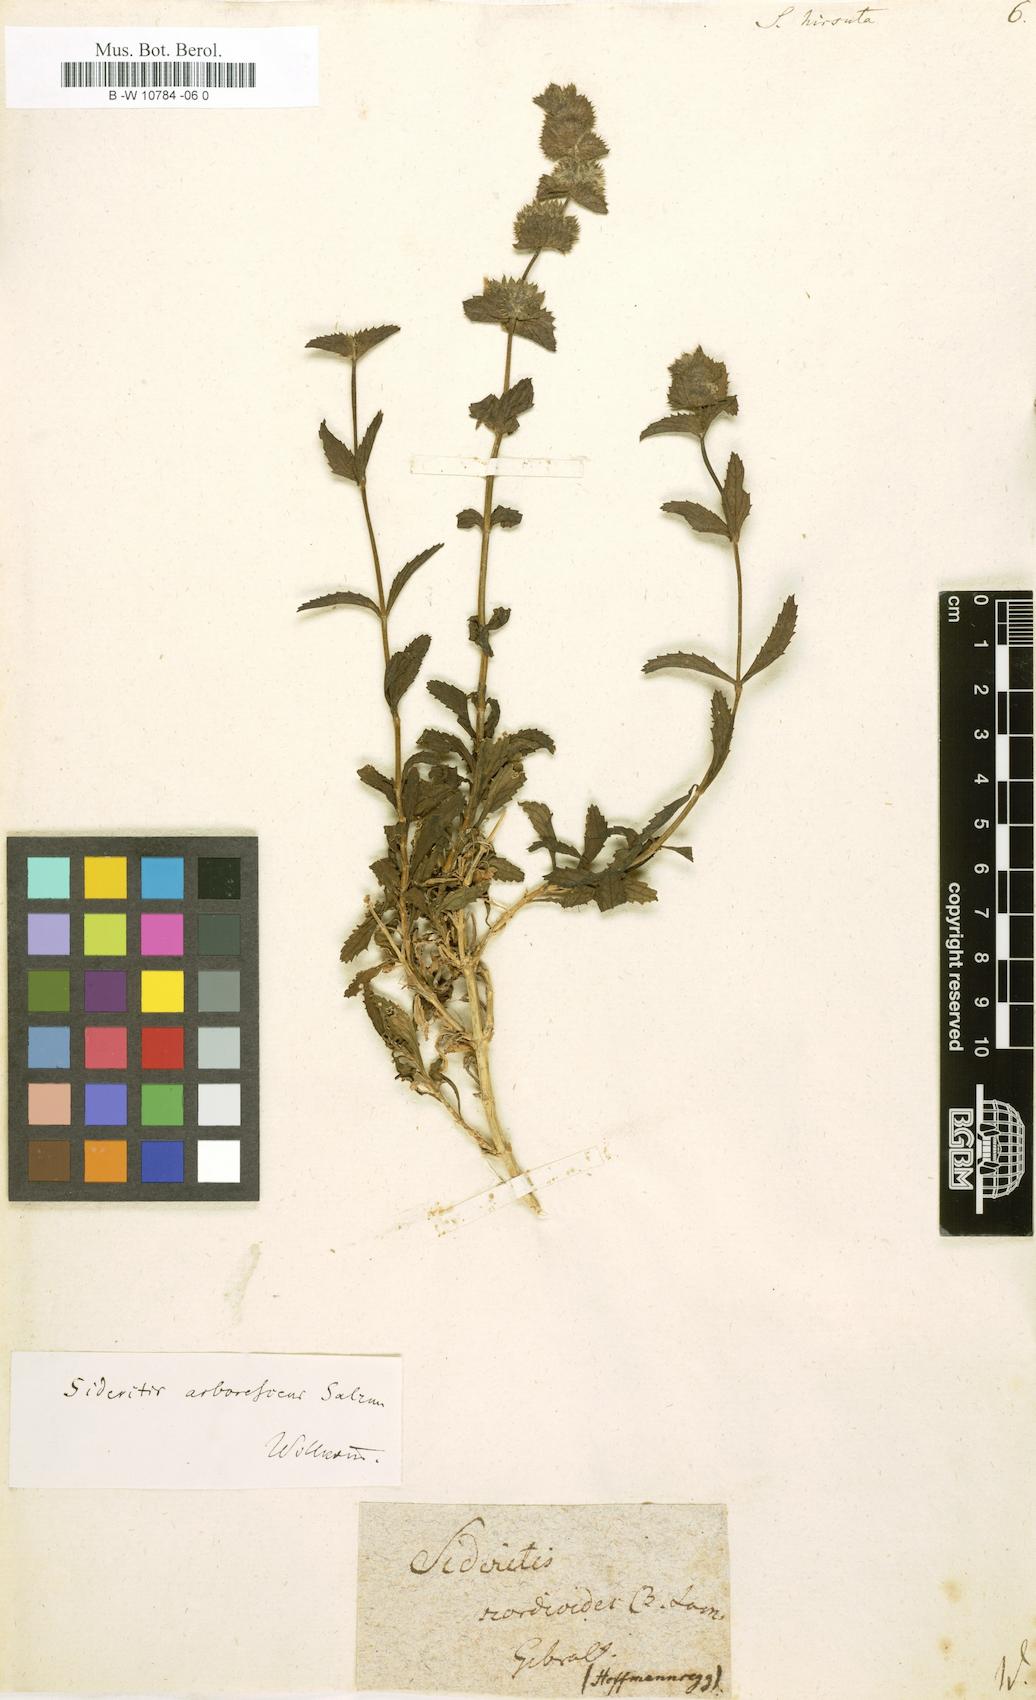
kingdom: Plantae
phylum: Tracheophyta
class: Magnoliopsida
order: Lamiales
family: Lamiaceae
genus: Sideritis
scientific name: Sideritis hirsuta
